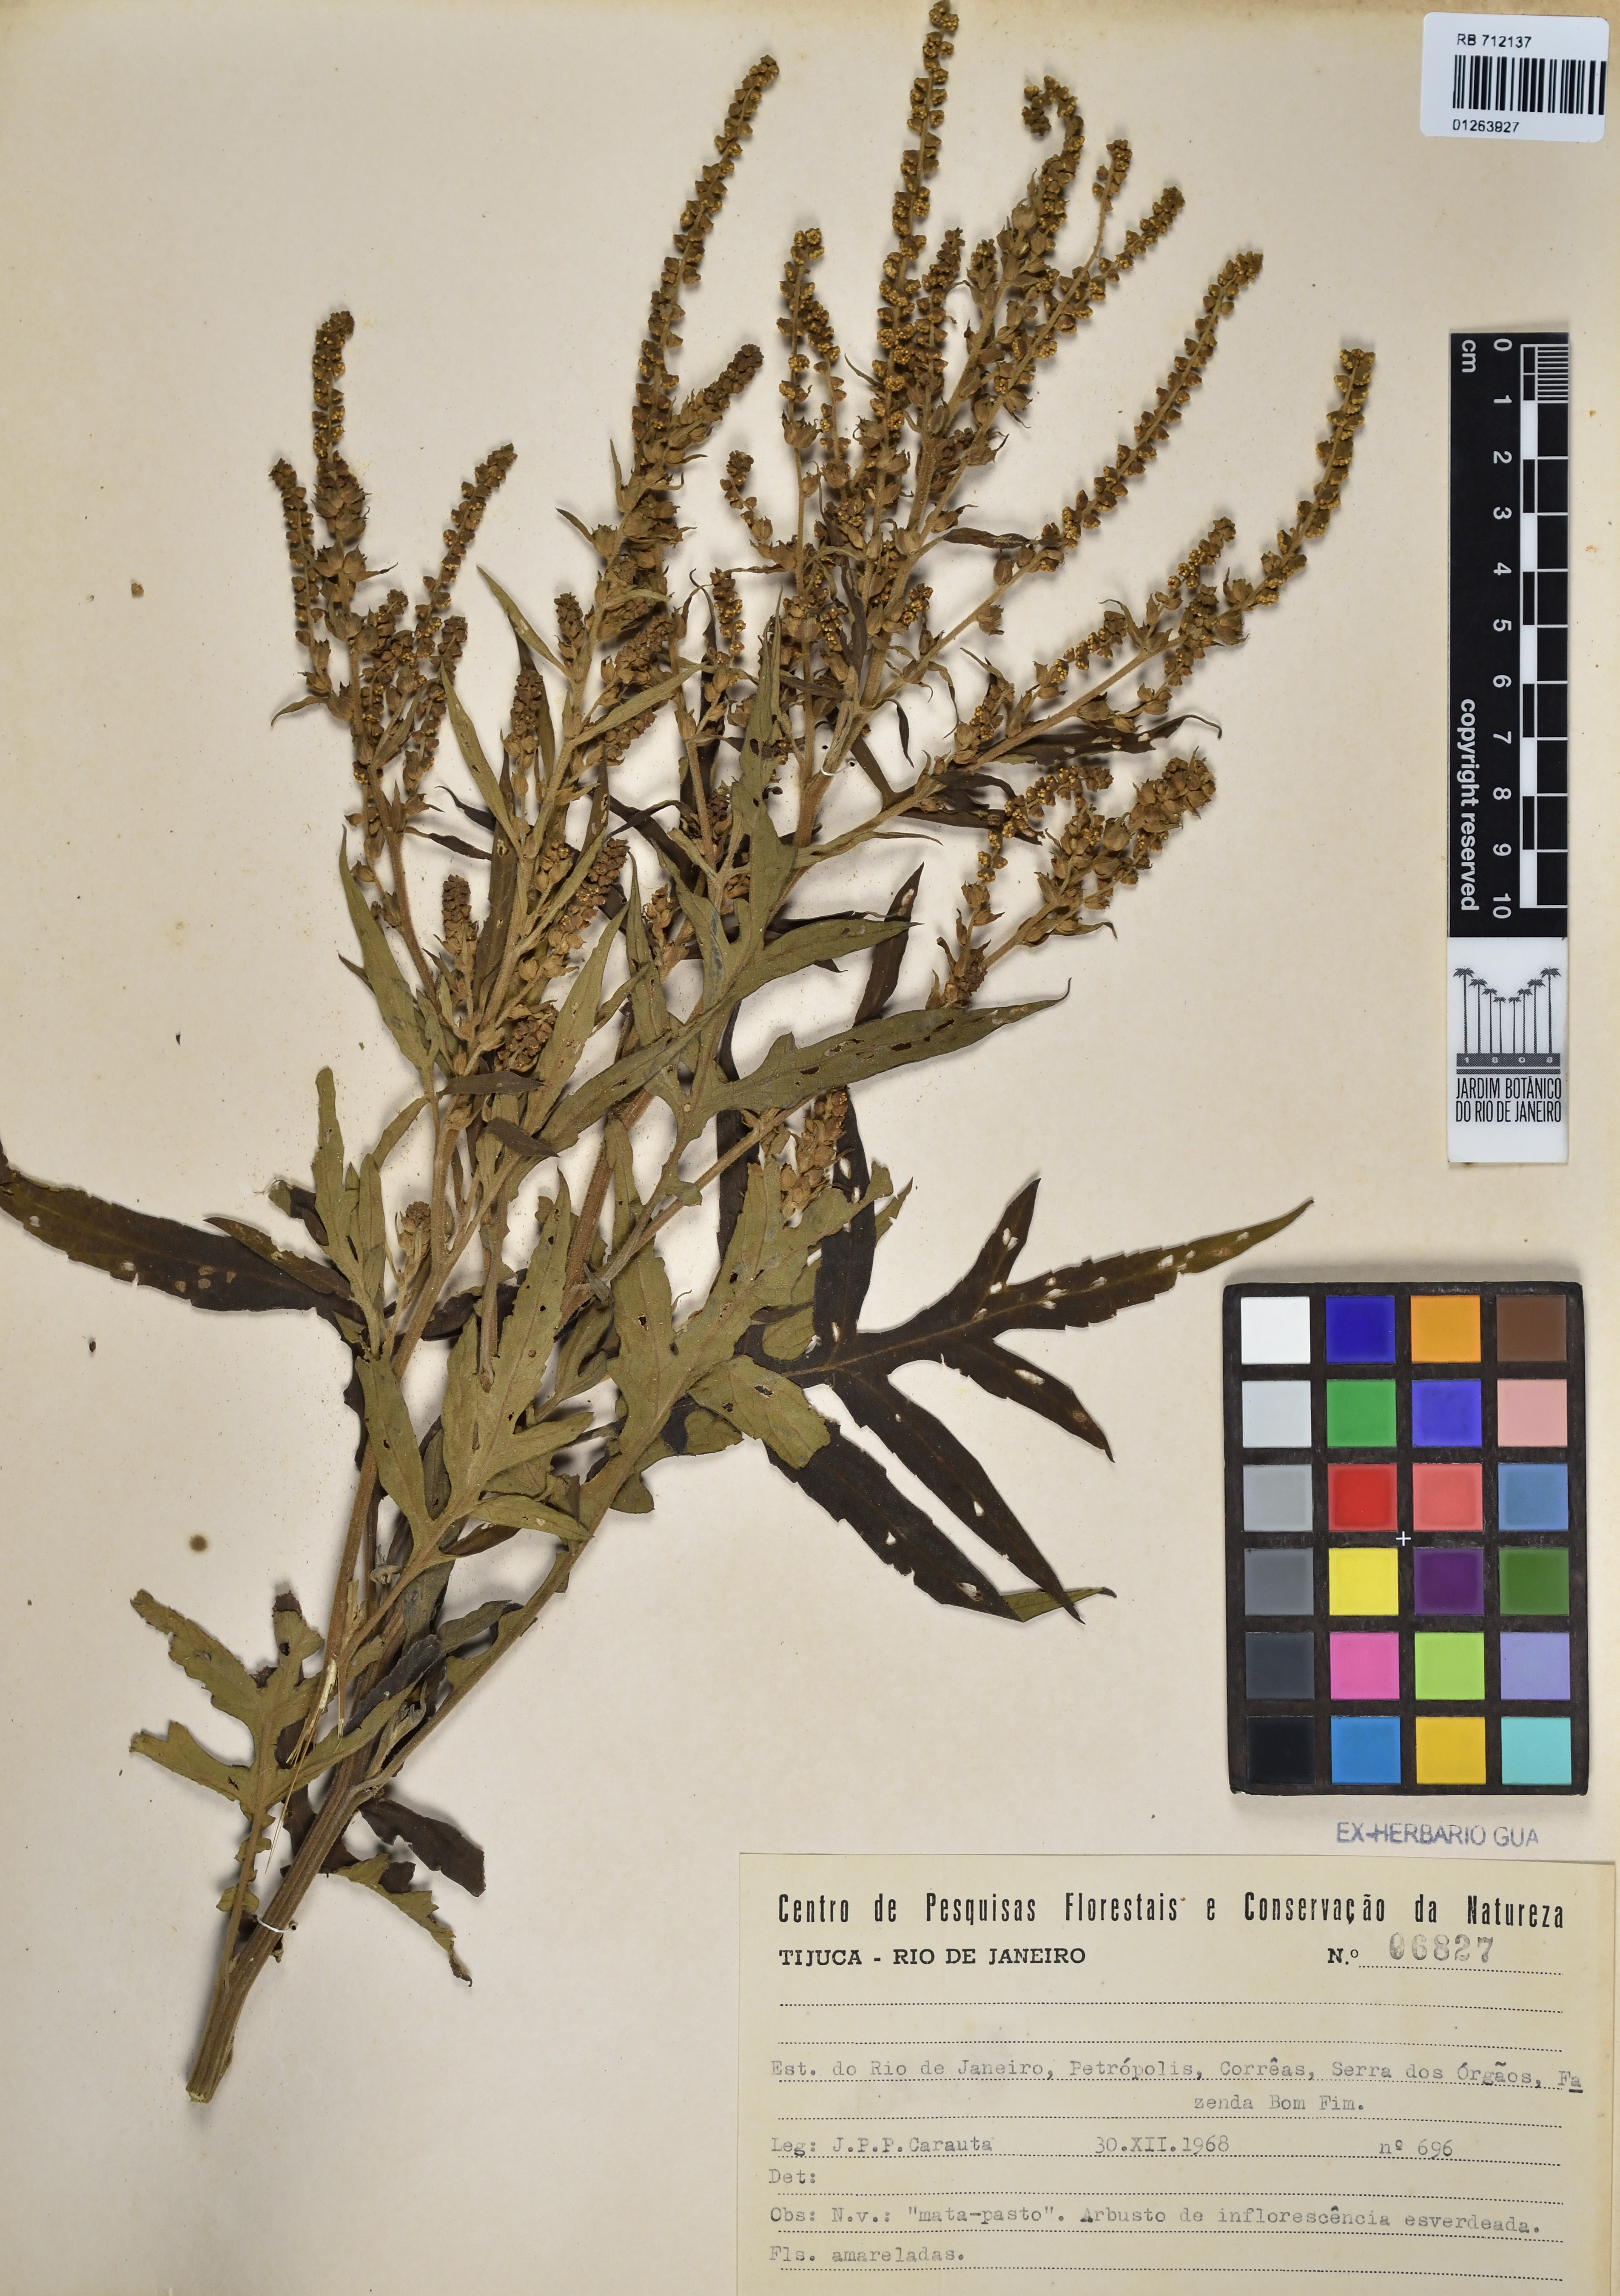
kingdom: Plantae
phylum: Tracheophyta
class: Magnoliopsida
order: Caryophyllales
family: Amaranthaceae
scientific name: Amaranthaceae
